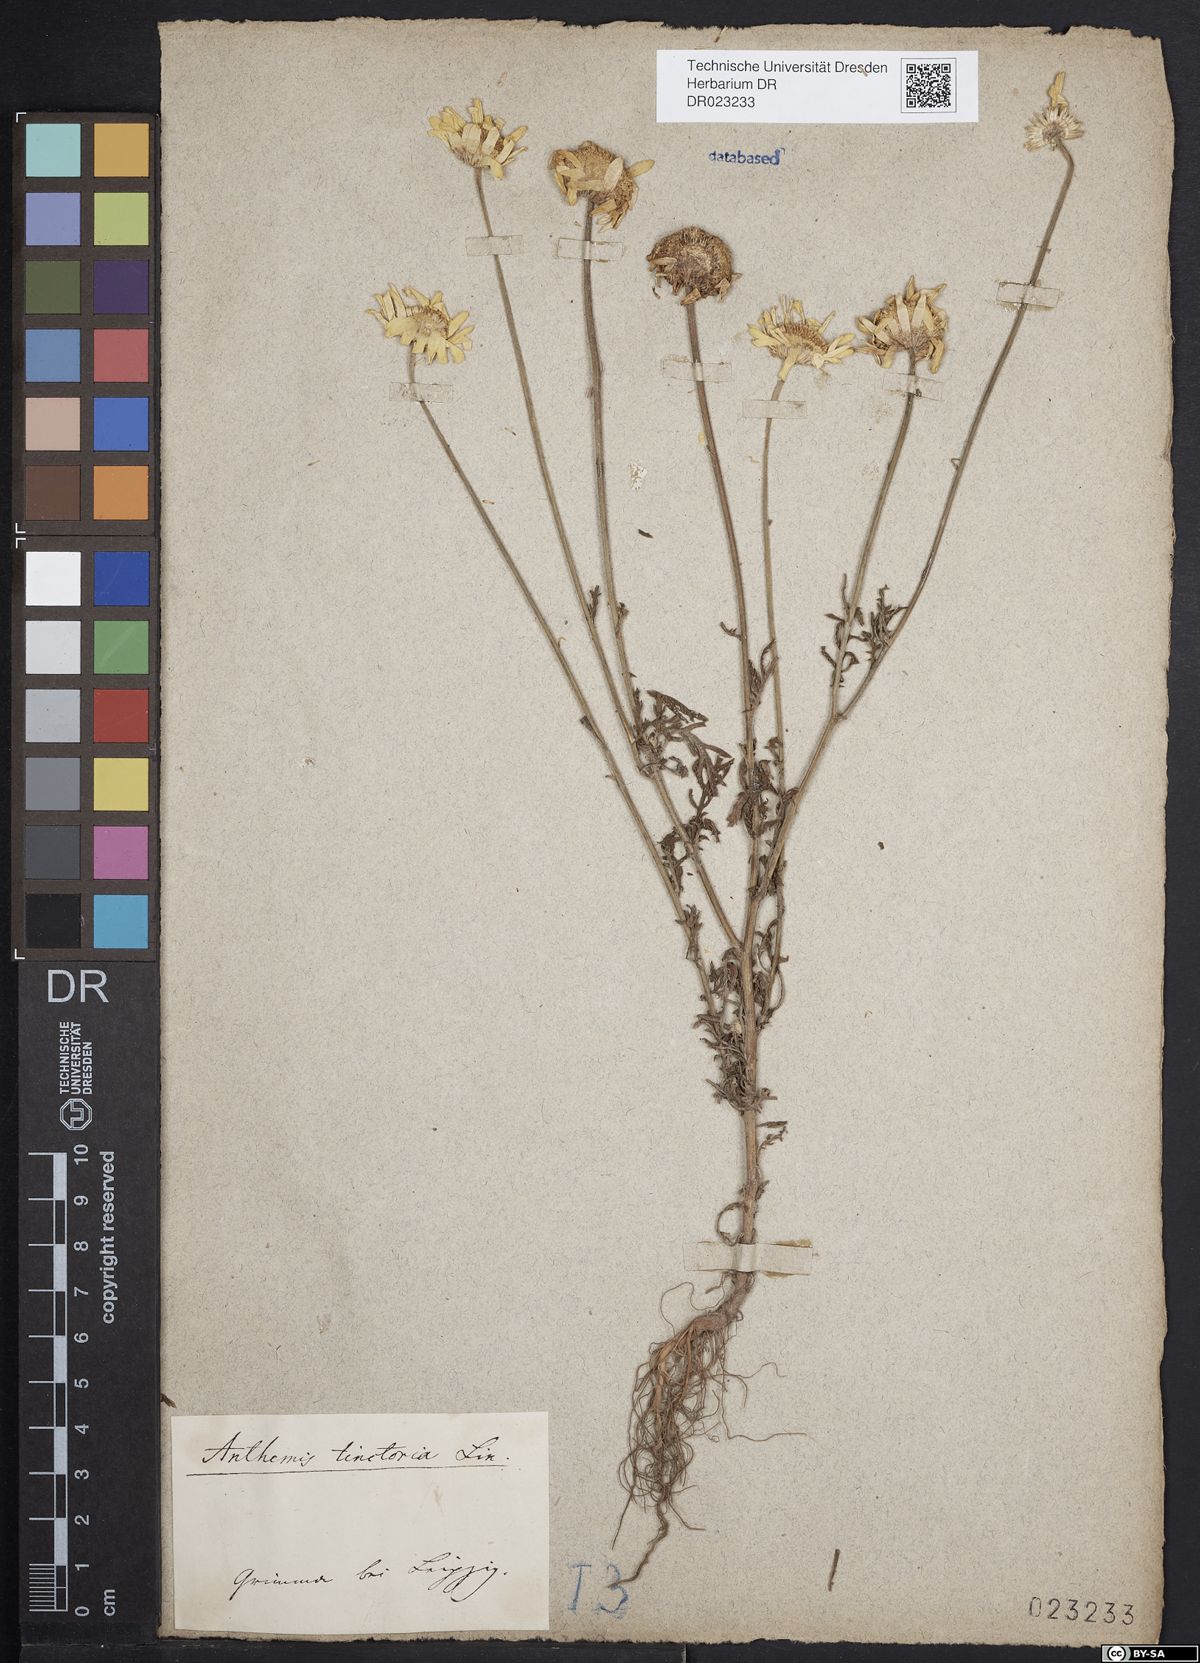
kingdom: Plantae
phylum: Tracheophyta
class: Magnoliopsida
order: Asterales
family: Asteraceae
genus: Cota
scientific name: Cota tinctoria
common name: Golden chamomile
